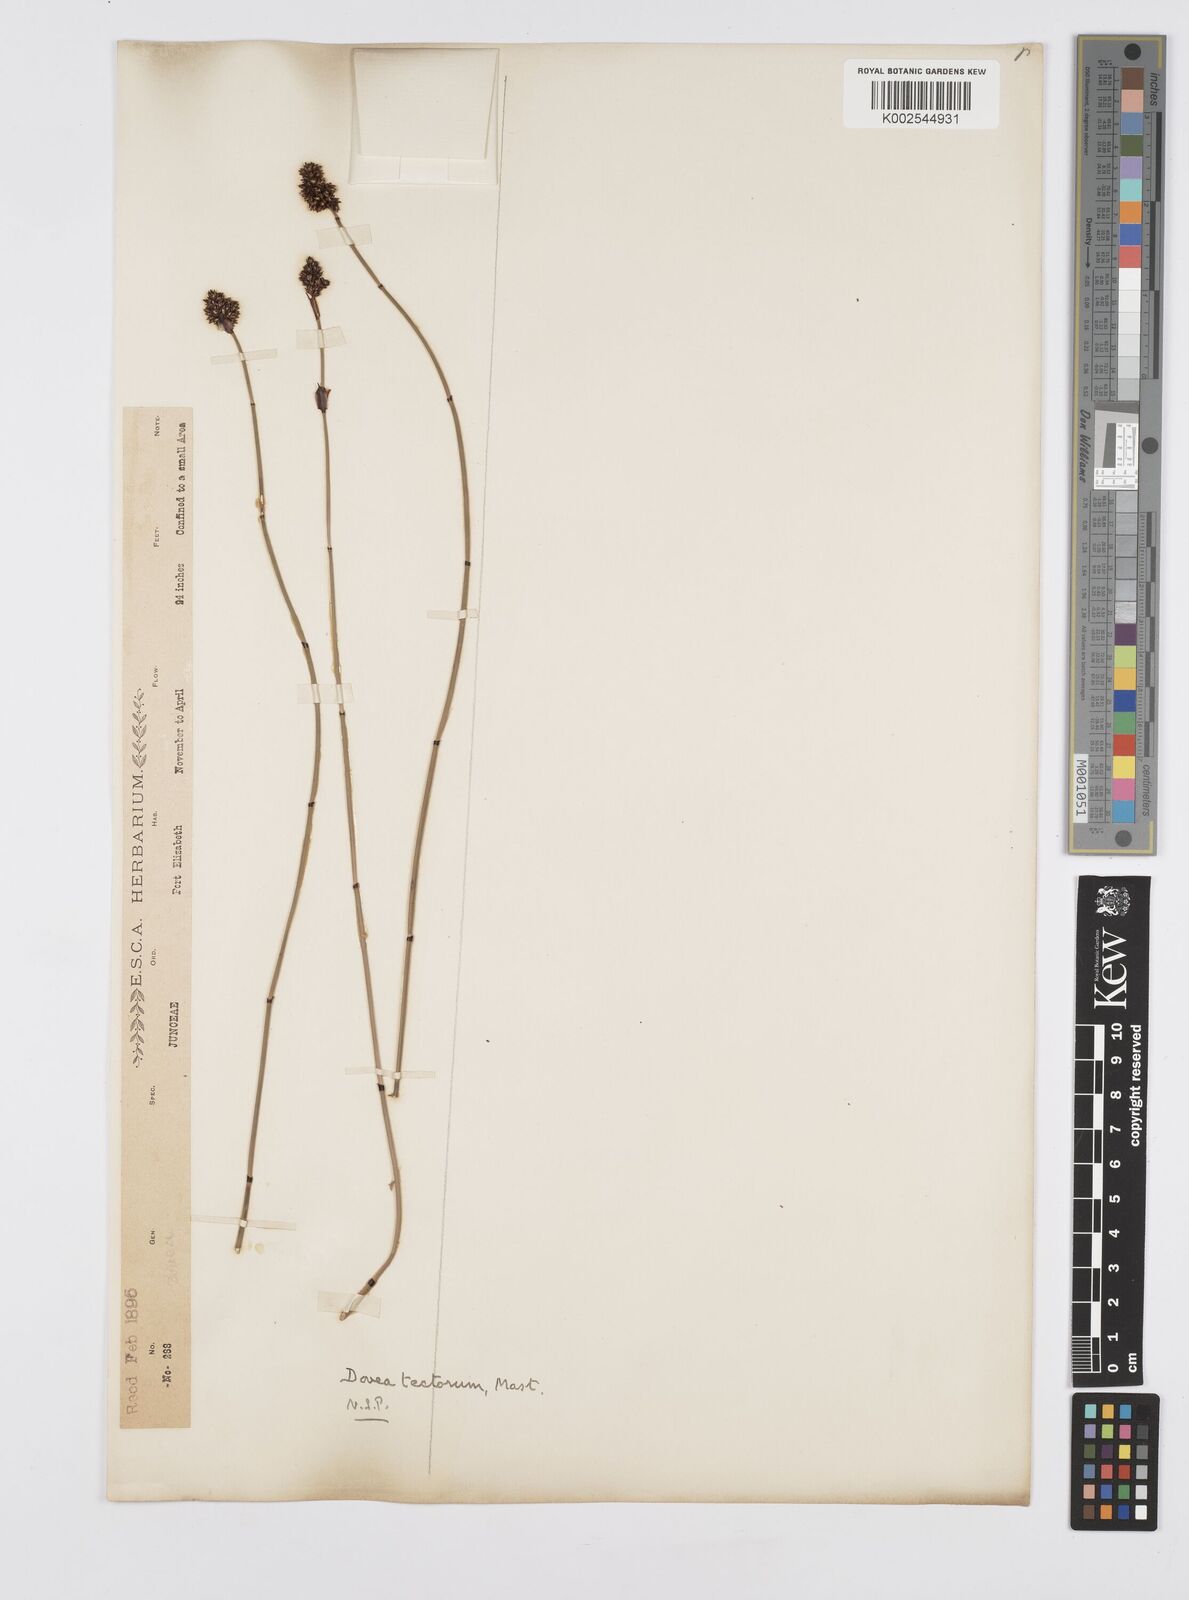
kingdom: Plantae
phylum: Tracheophyta
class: Liliopsida
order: Poales
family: Restionaceae
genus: Elegia
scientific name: Elegia tectorum
